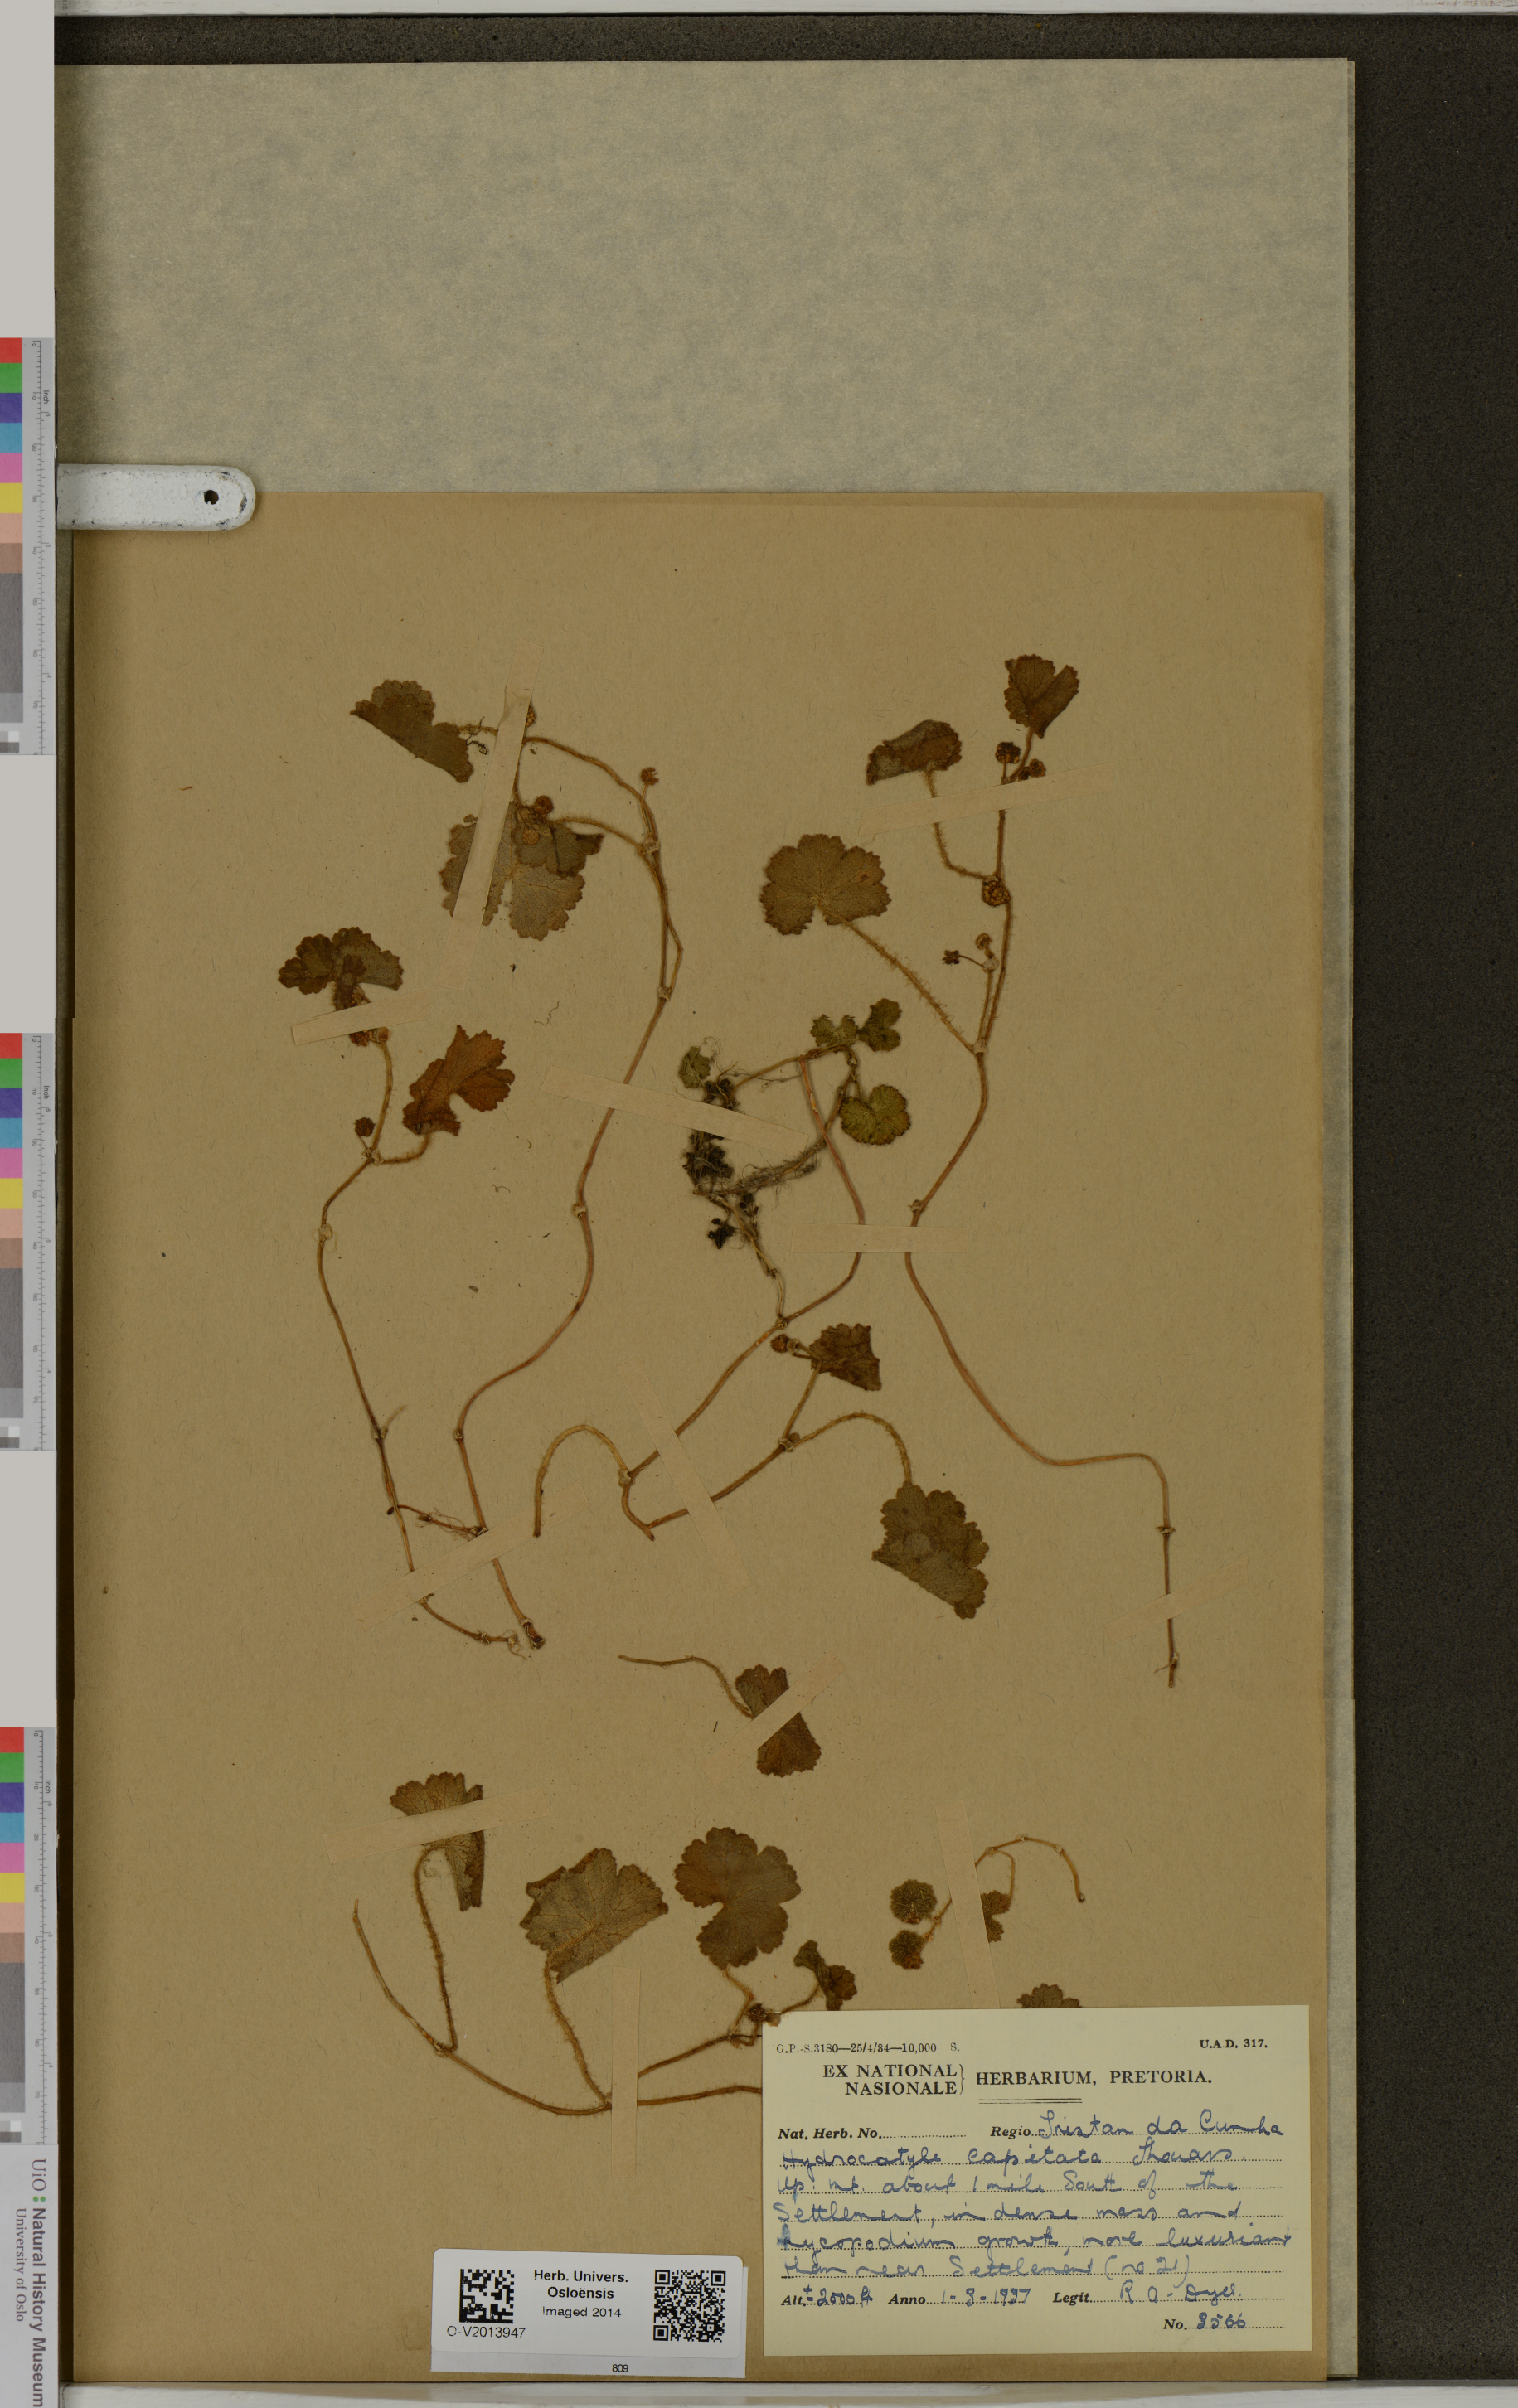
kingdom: Plantae
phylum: Tracheophyta
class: Magnoliopsida
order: Apiales
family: Araliaceae
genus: Hydrocotyle
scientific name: Hydrocotyle capitata
